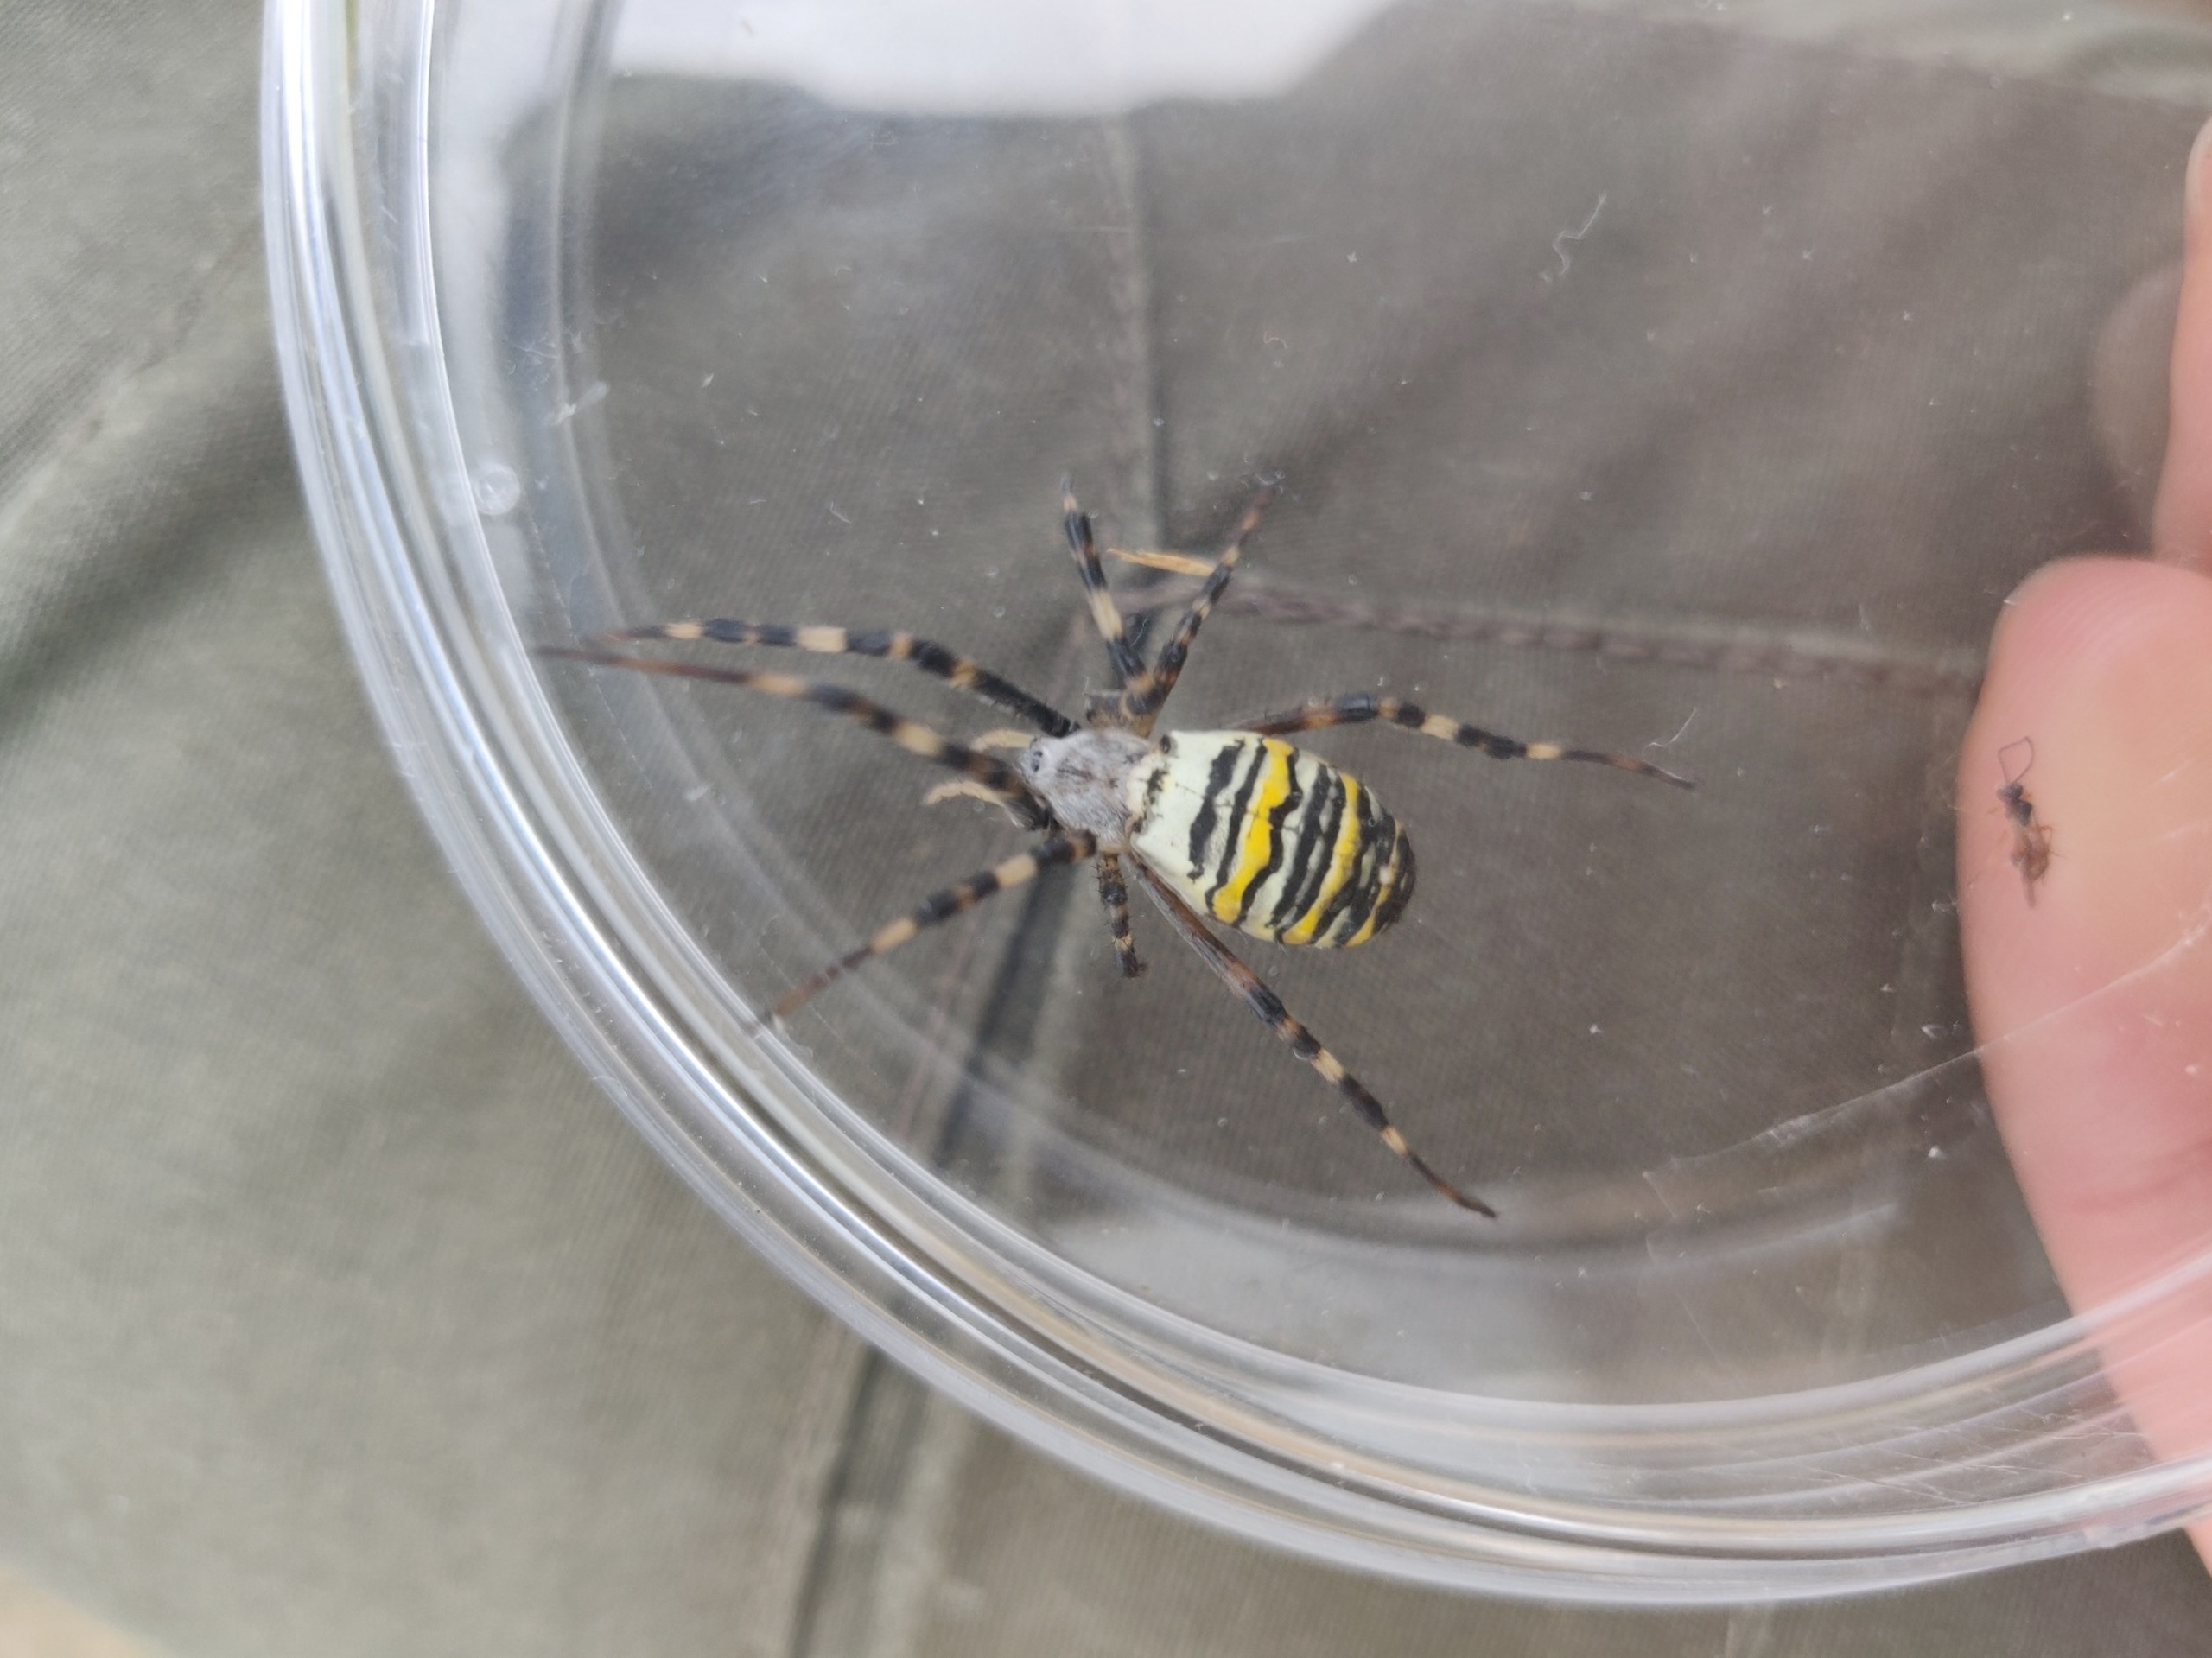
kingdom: Animalia
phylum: Arthropoda
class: Arachnida
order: Araneae
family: Araneidae
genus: Argiope
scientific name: Argiope bruennichi
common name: Hvepseedderkop
